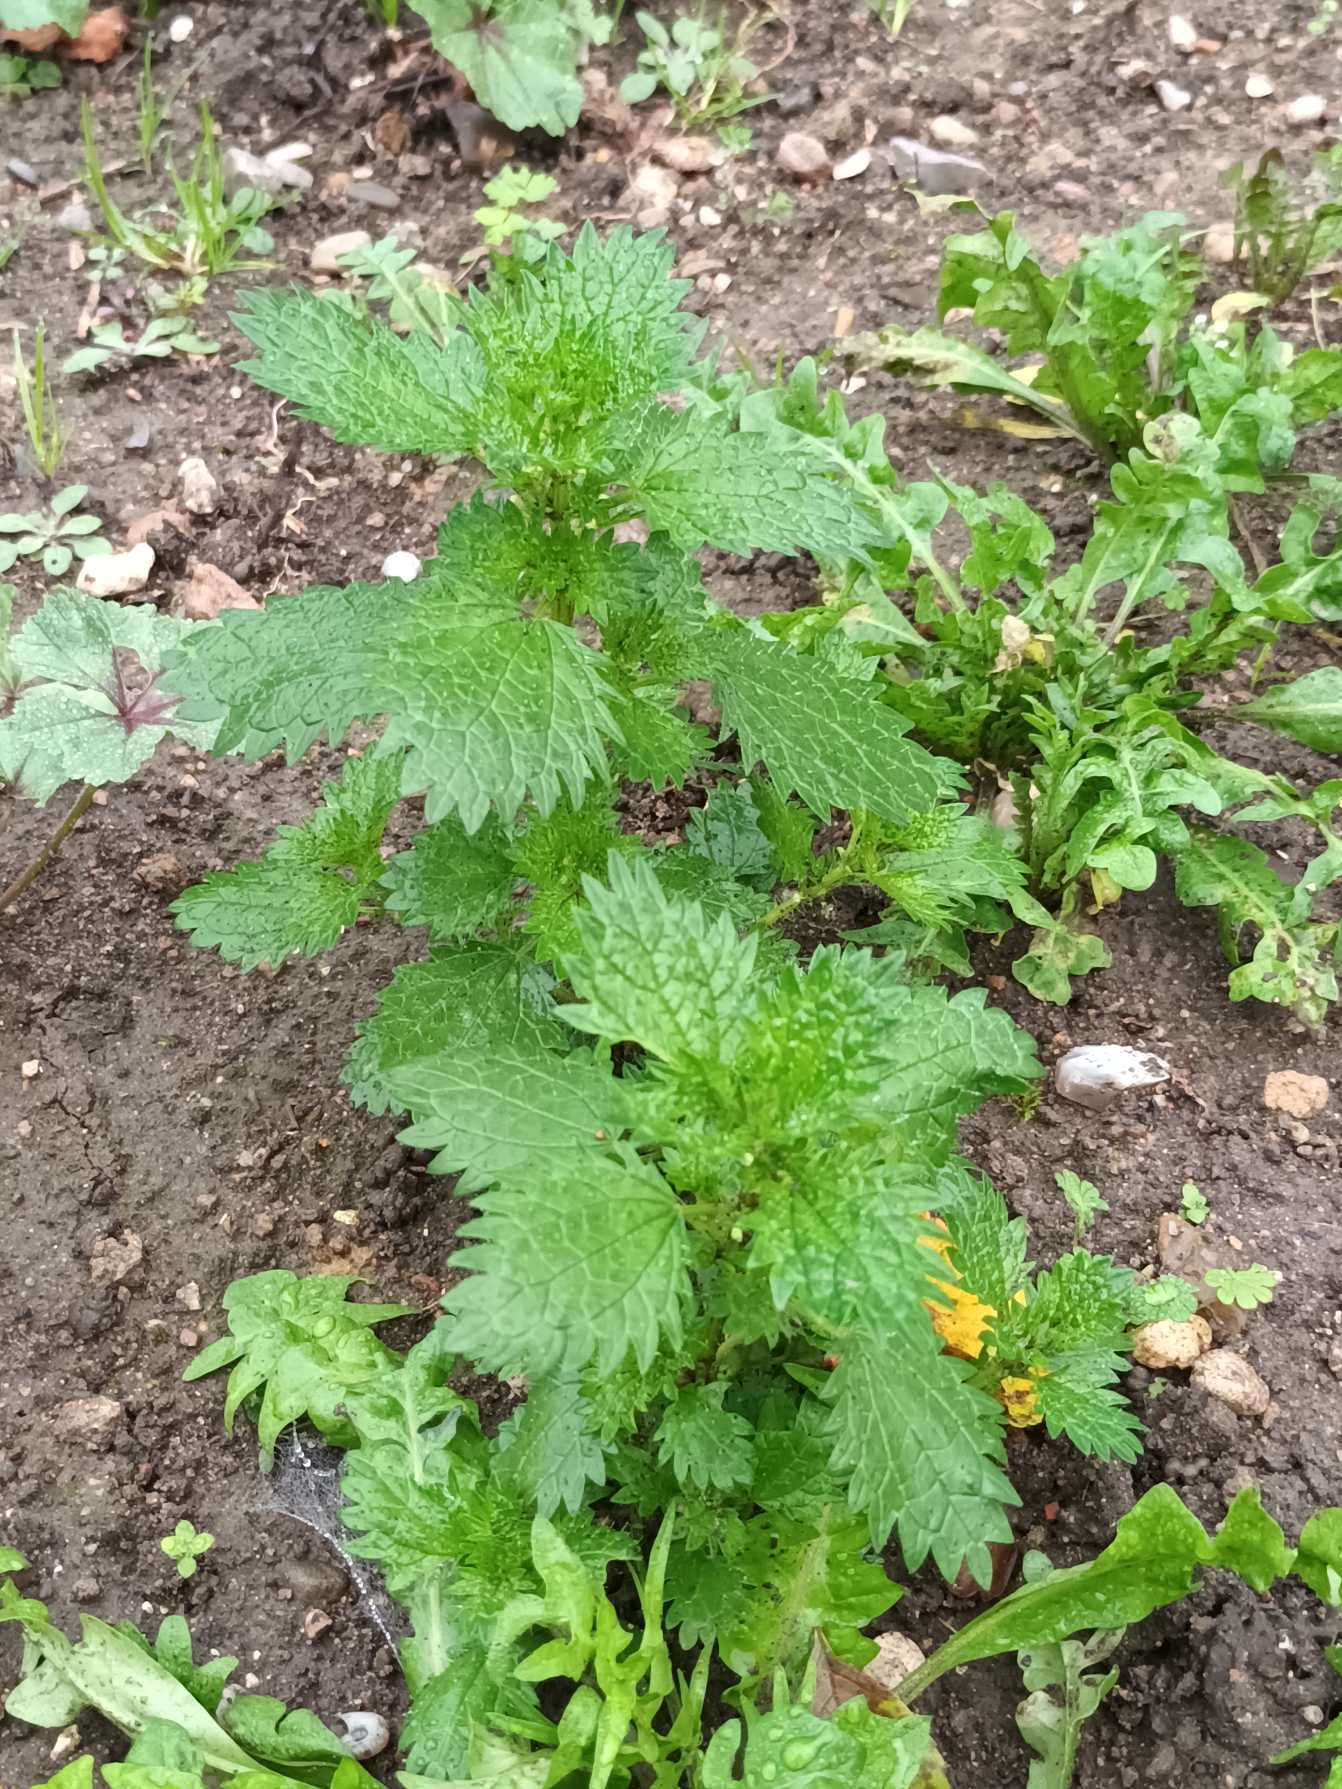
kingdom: Plantae
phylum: Tracheophyta
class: Magnoliopsida
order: Rosales
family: Urticaceae
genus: Urtica
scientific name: Urtica urens
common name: Liden nælde
